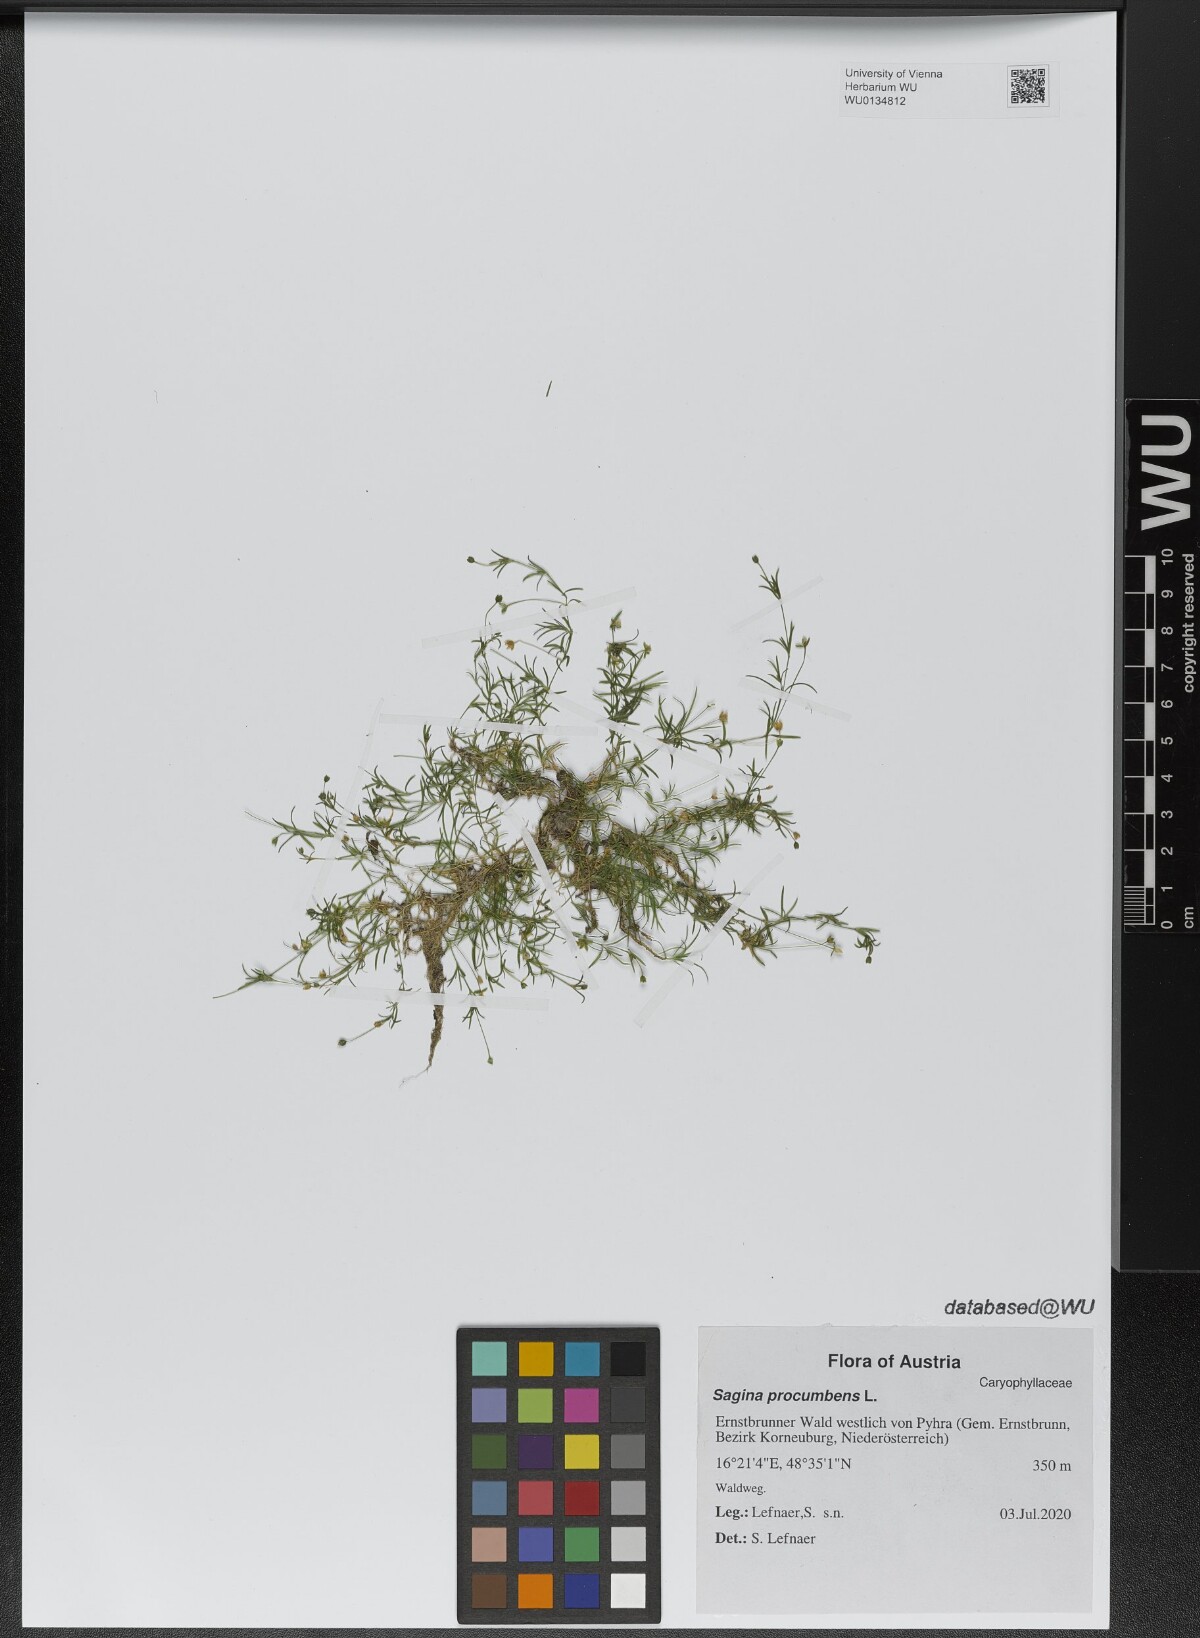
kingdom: Plantae
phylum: Tracheophyta
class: Magnoliopsida
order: Caryophyllales
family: Caryophyllaceae
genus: Sagina
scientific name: Sagina procumbens
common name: Procumbent pearlwort
